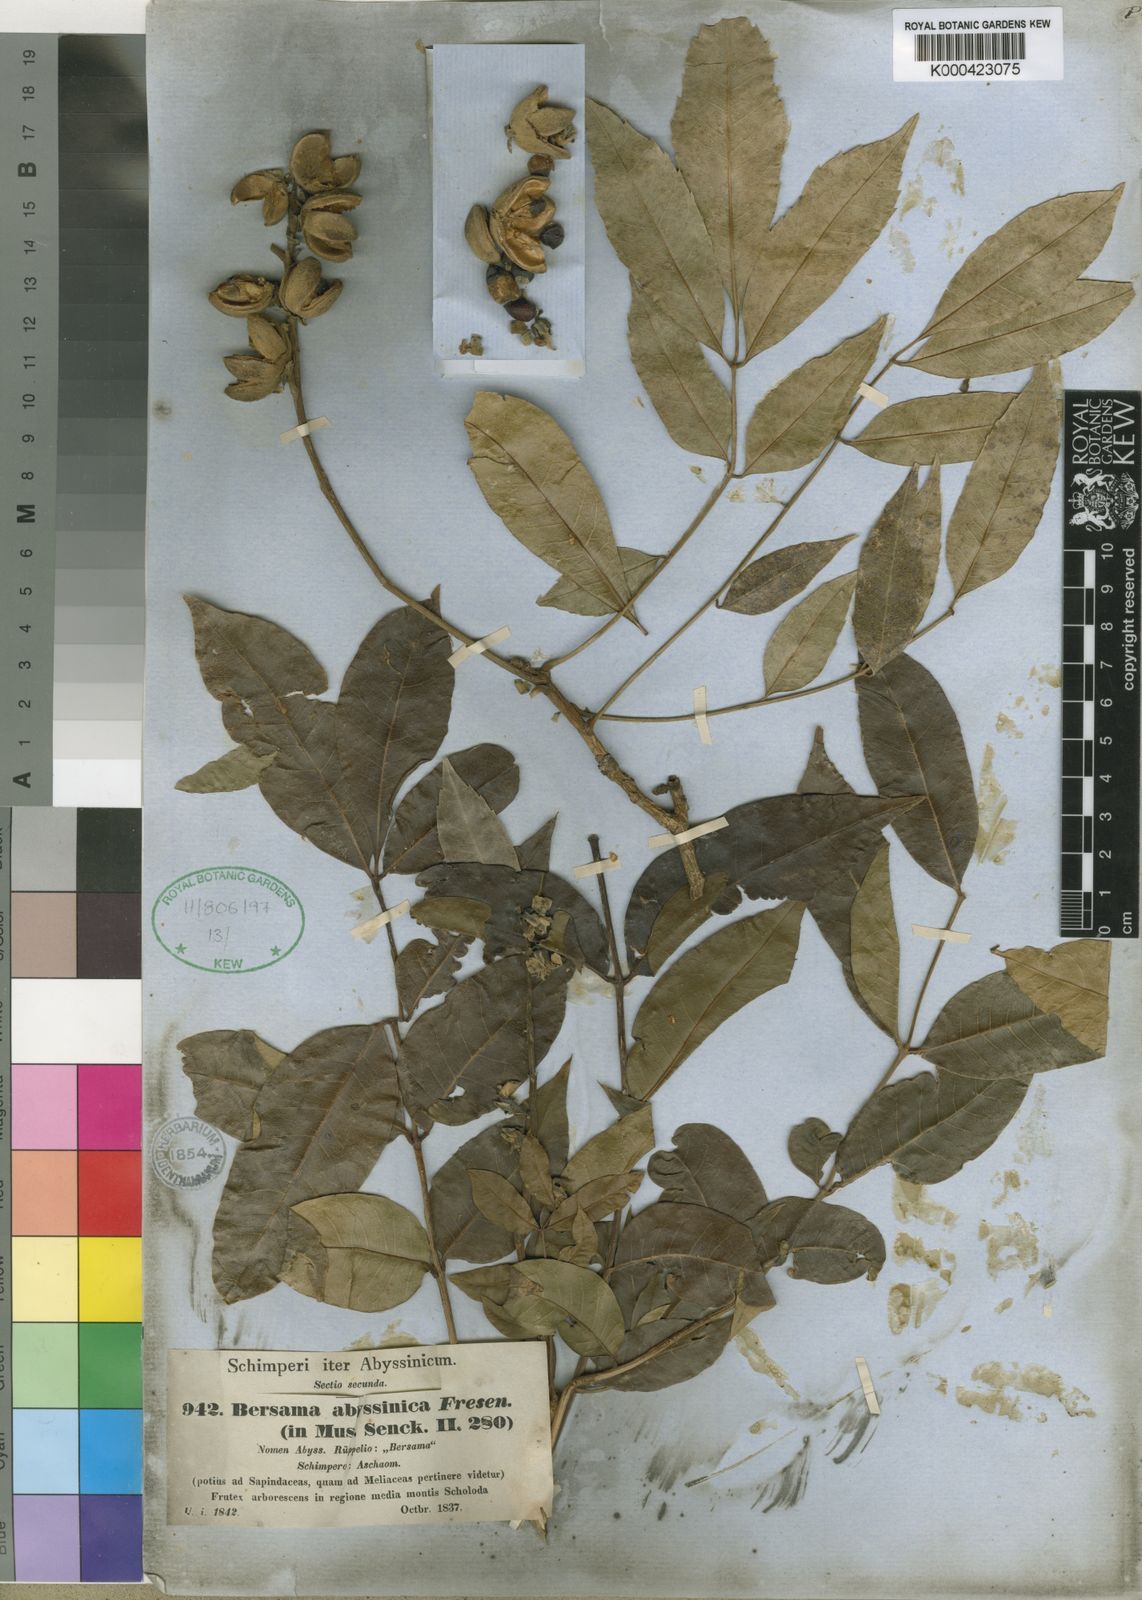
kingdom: Plantae
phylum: Tracheophyta
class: Magnoliopsida
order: Geraniales
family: Melianthaceae
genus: Bersama
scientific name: Bersama abyssinica
